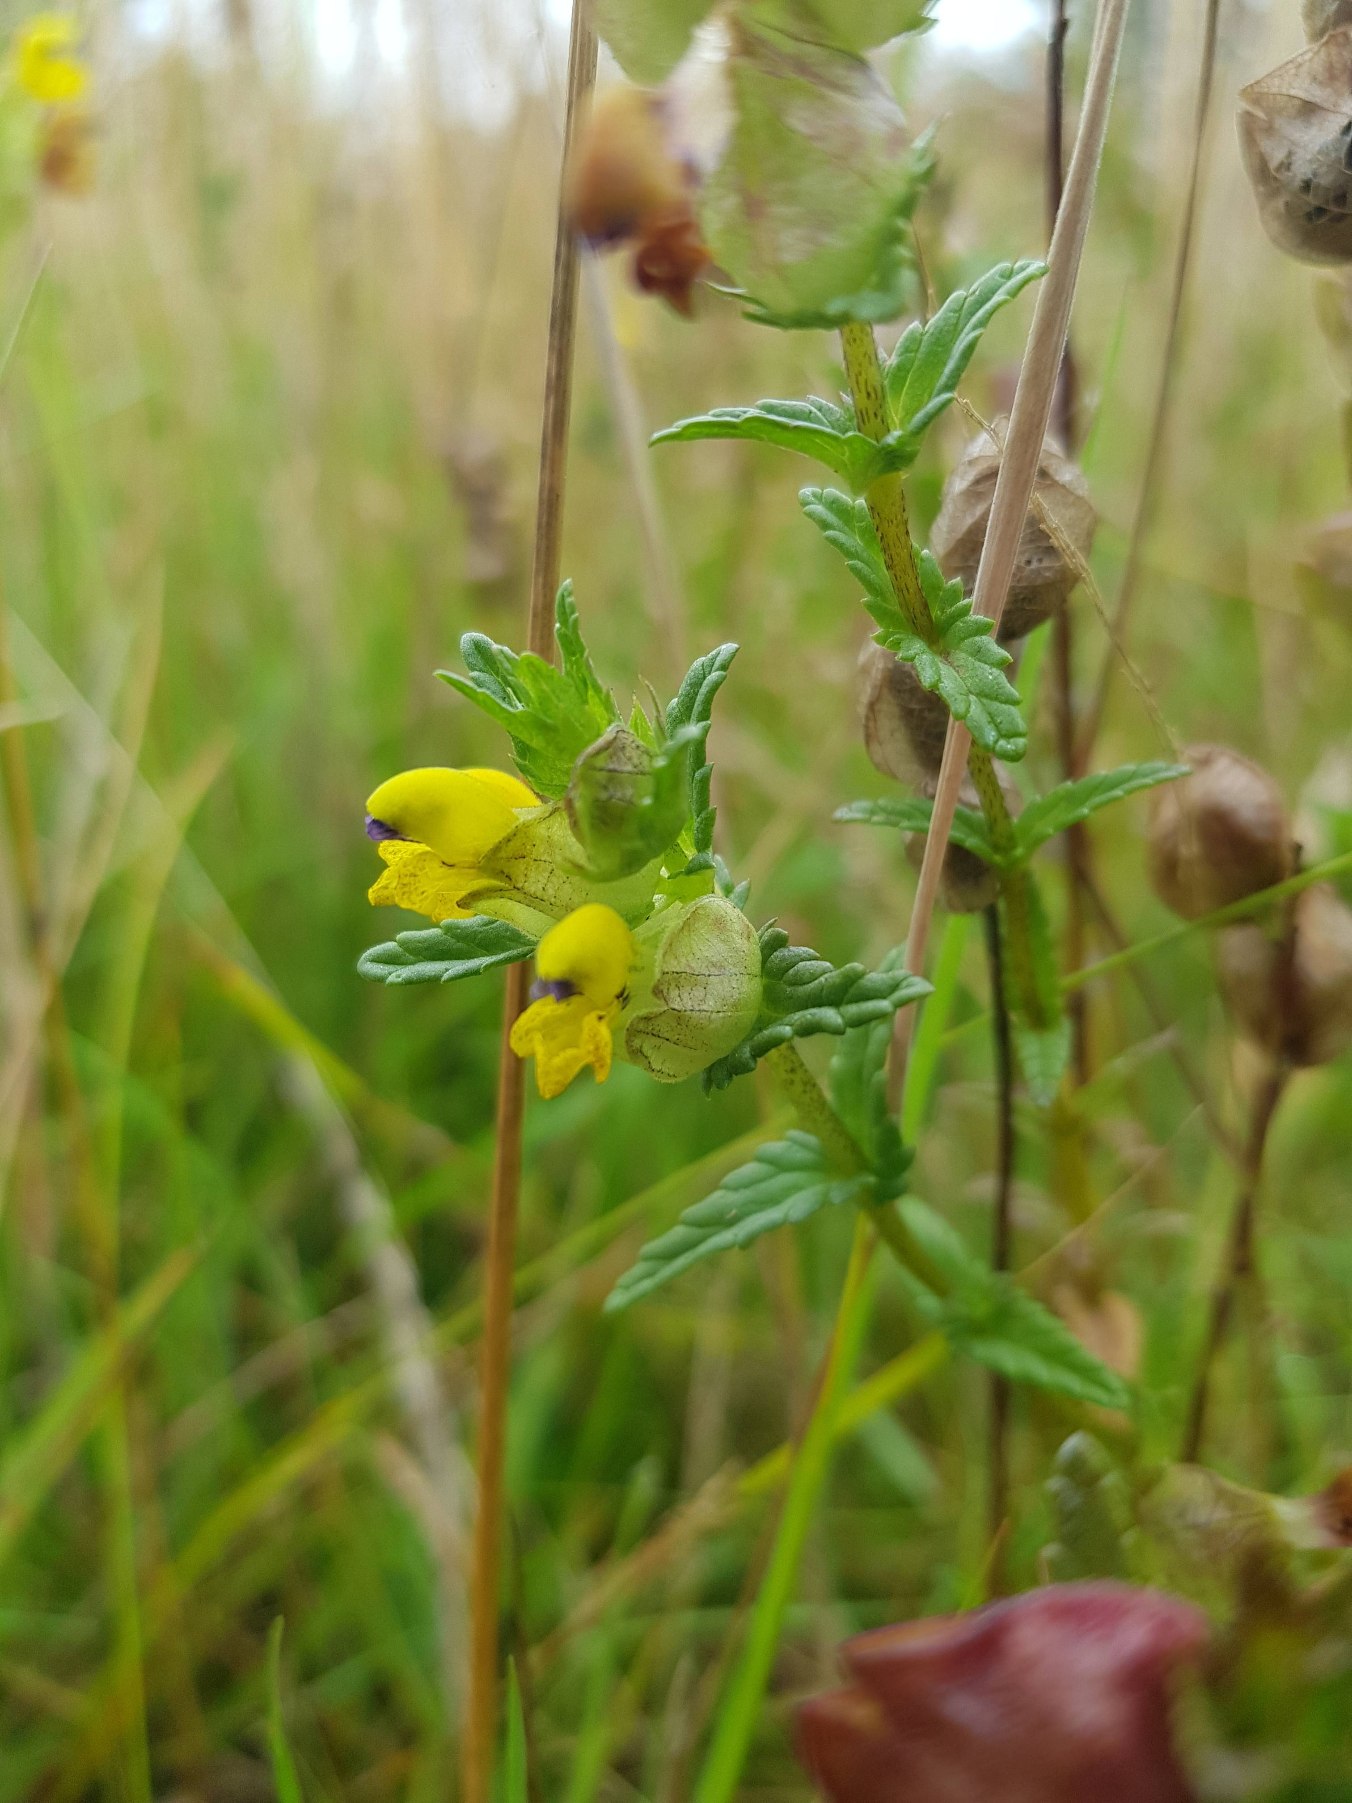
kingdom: Plantae
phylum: Tracheophyta
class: Magnoliopsida
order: Lamiales
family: Orobanchaceae
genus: Rhinanthus
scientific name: Rhinanthus minor
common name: Liden skjaller
